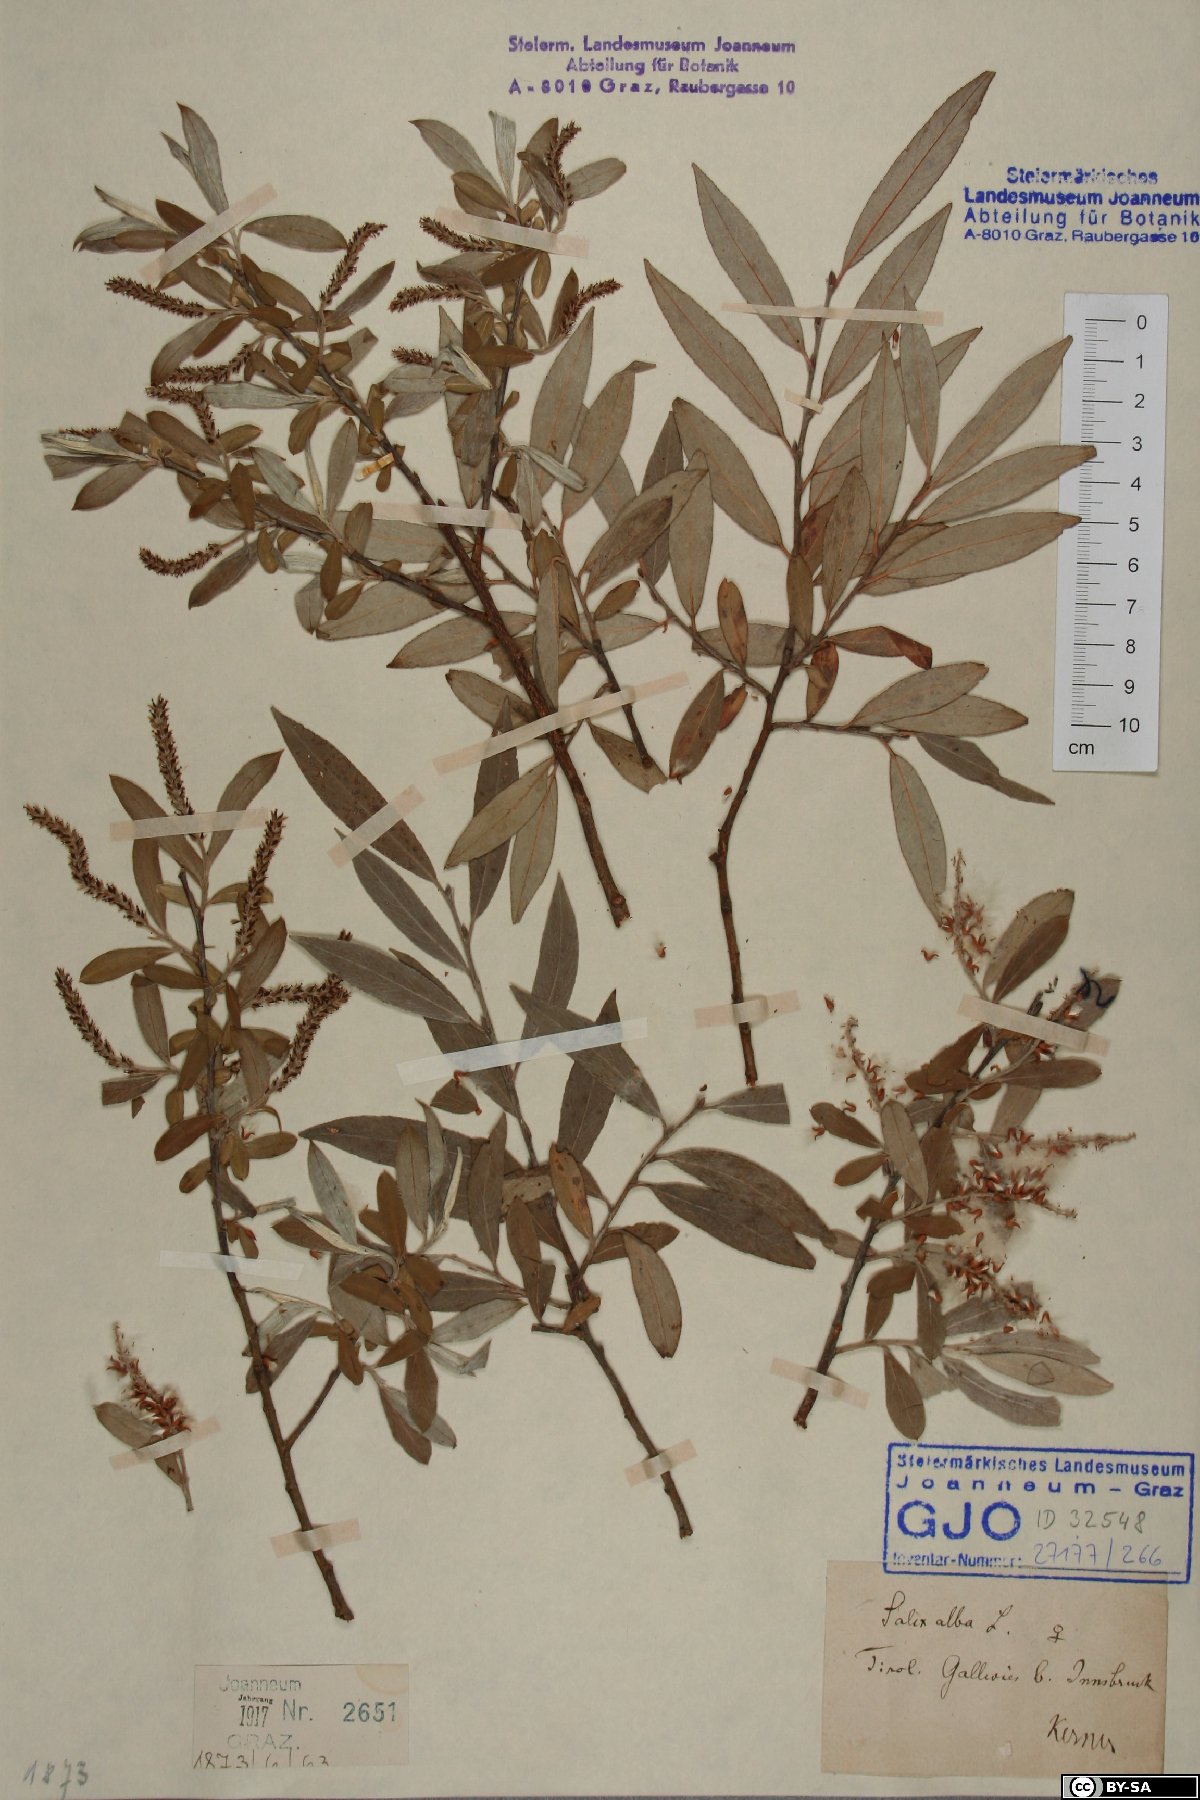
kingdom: Plantae
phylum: Tracheophyta
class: Magnoliopsida
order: Malpighiales
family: Salicaceae
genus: Salix
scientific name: Salix alba
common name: White willow
